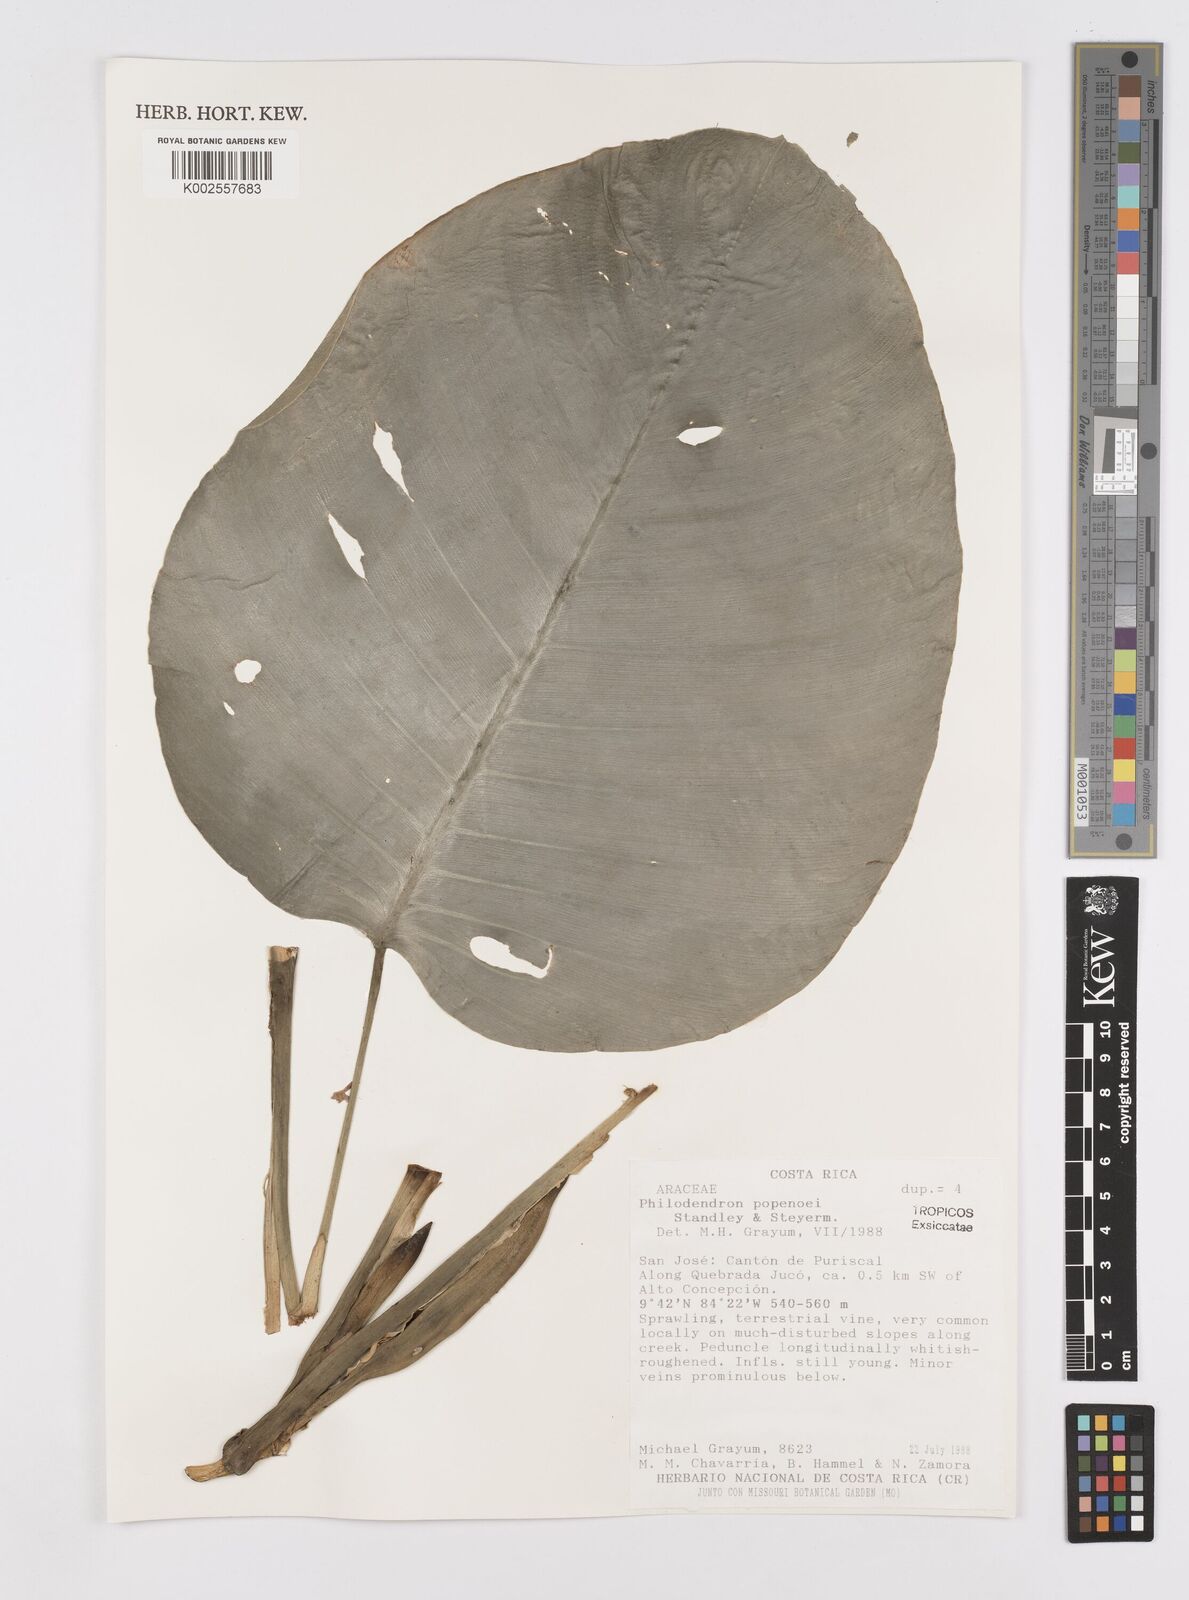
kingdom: Plantae
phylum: Tracheophyta
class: Liliopsida
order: Alismatales
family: Araceae
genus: Philodendron
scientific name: Philodendron popenoei
